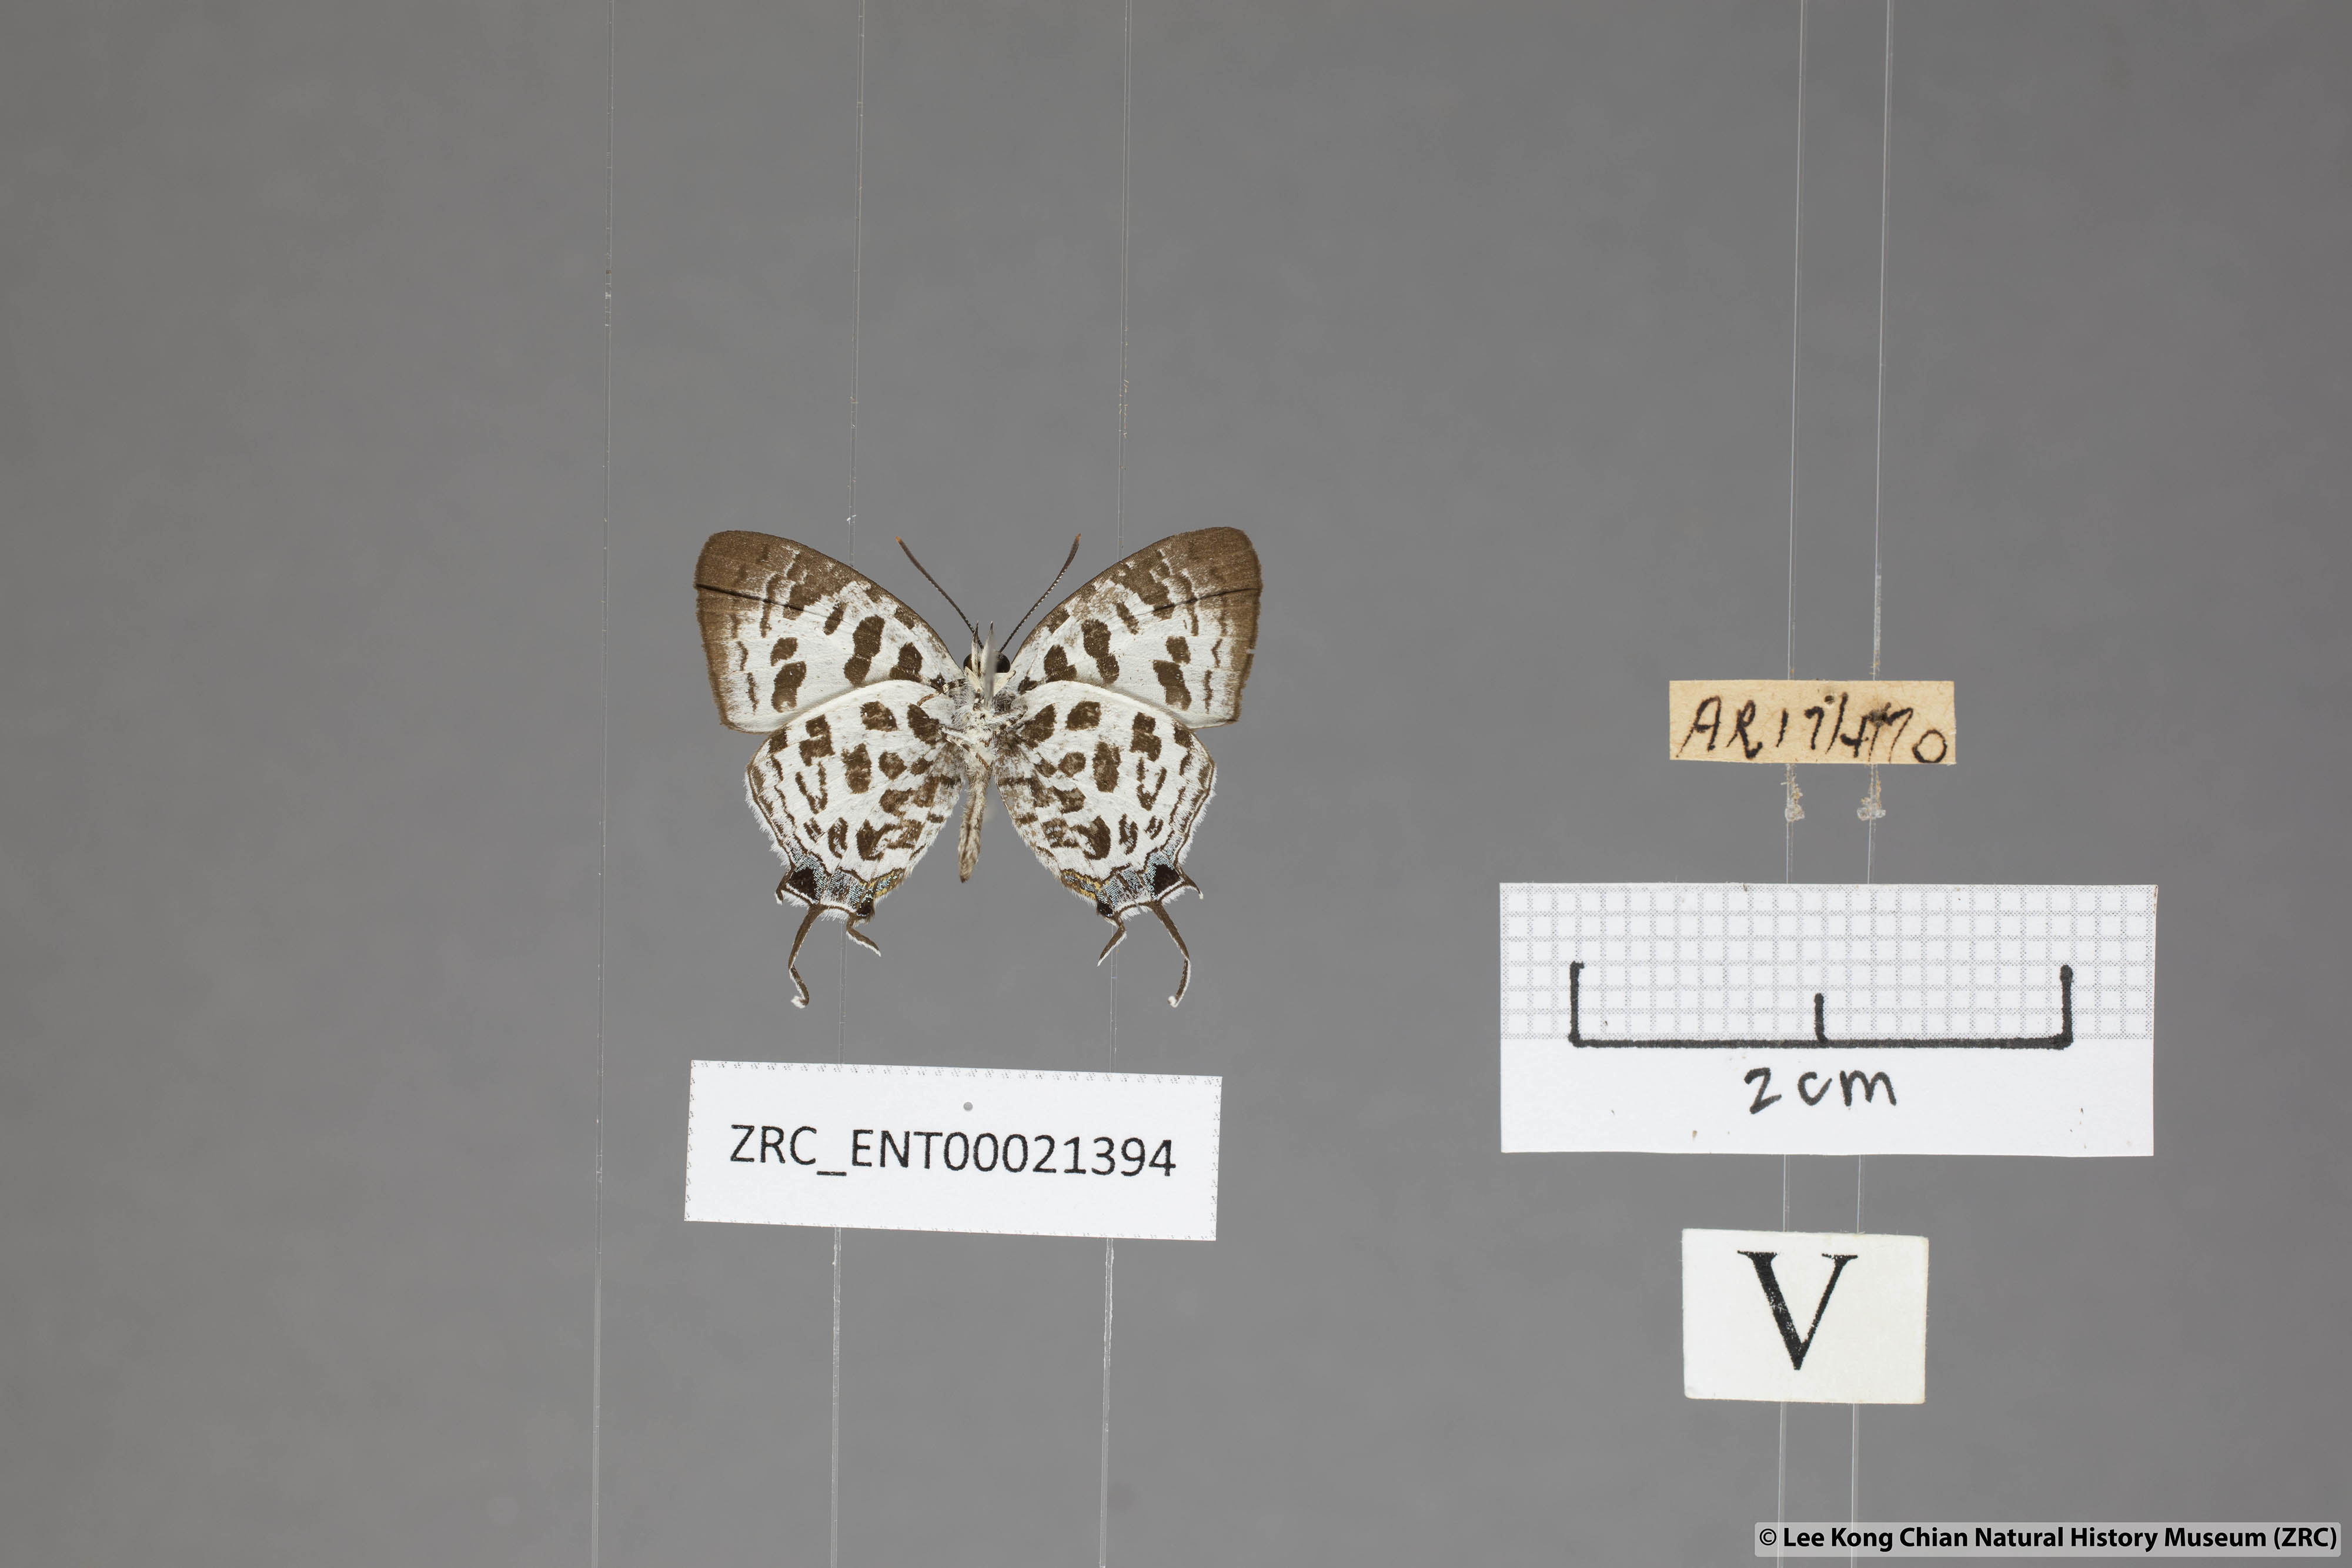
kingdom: Animalia
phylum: Arthropoda
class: Insecta
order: Lepidoptera
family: Lycaenidae
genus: Drupadia
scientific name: Drupadia scaeva
